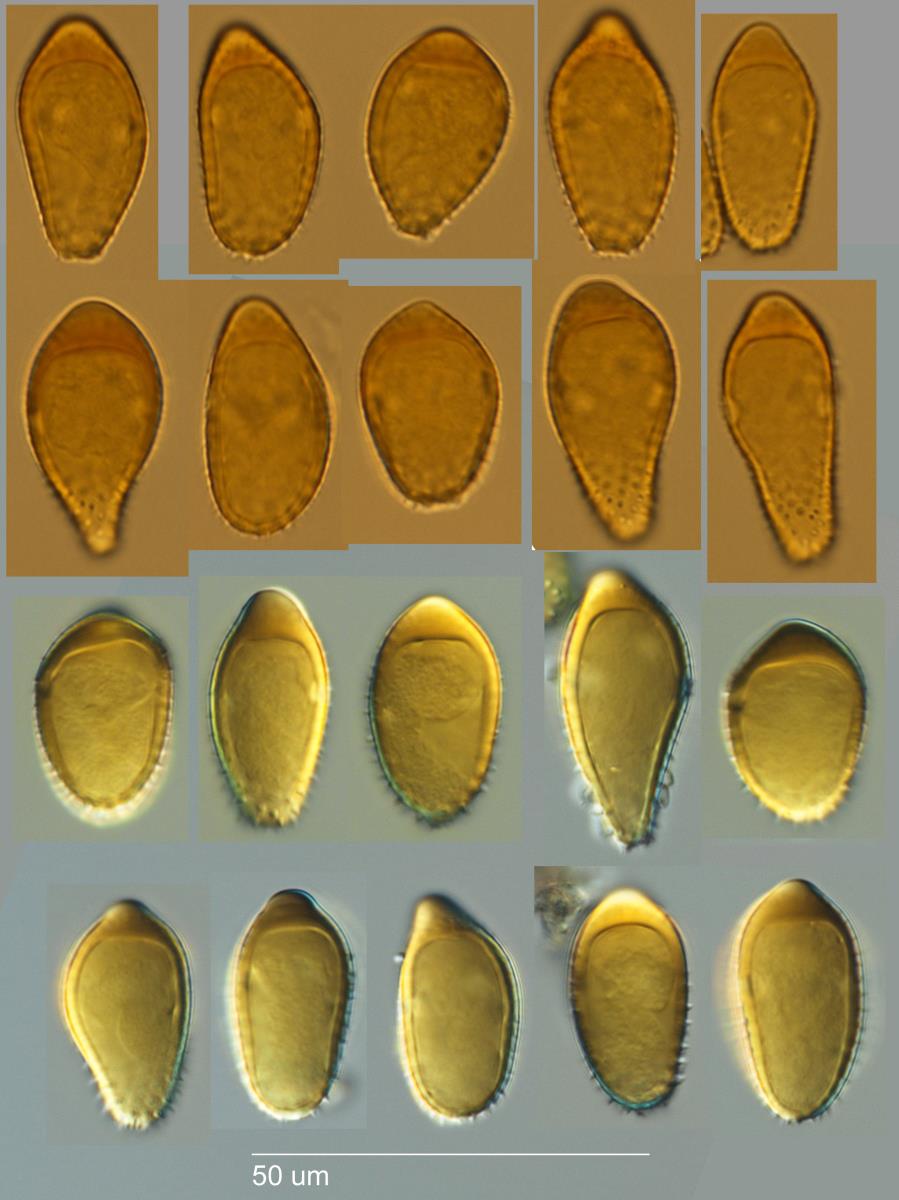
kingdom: Fungi
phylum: Basidiomycota
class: Pucciniomycetes
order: Pucciniales
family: Tranzscheliaceae
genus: Tranzschelia
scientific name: Tranzschelia discolor
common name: Plum rust
